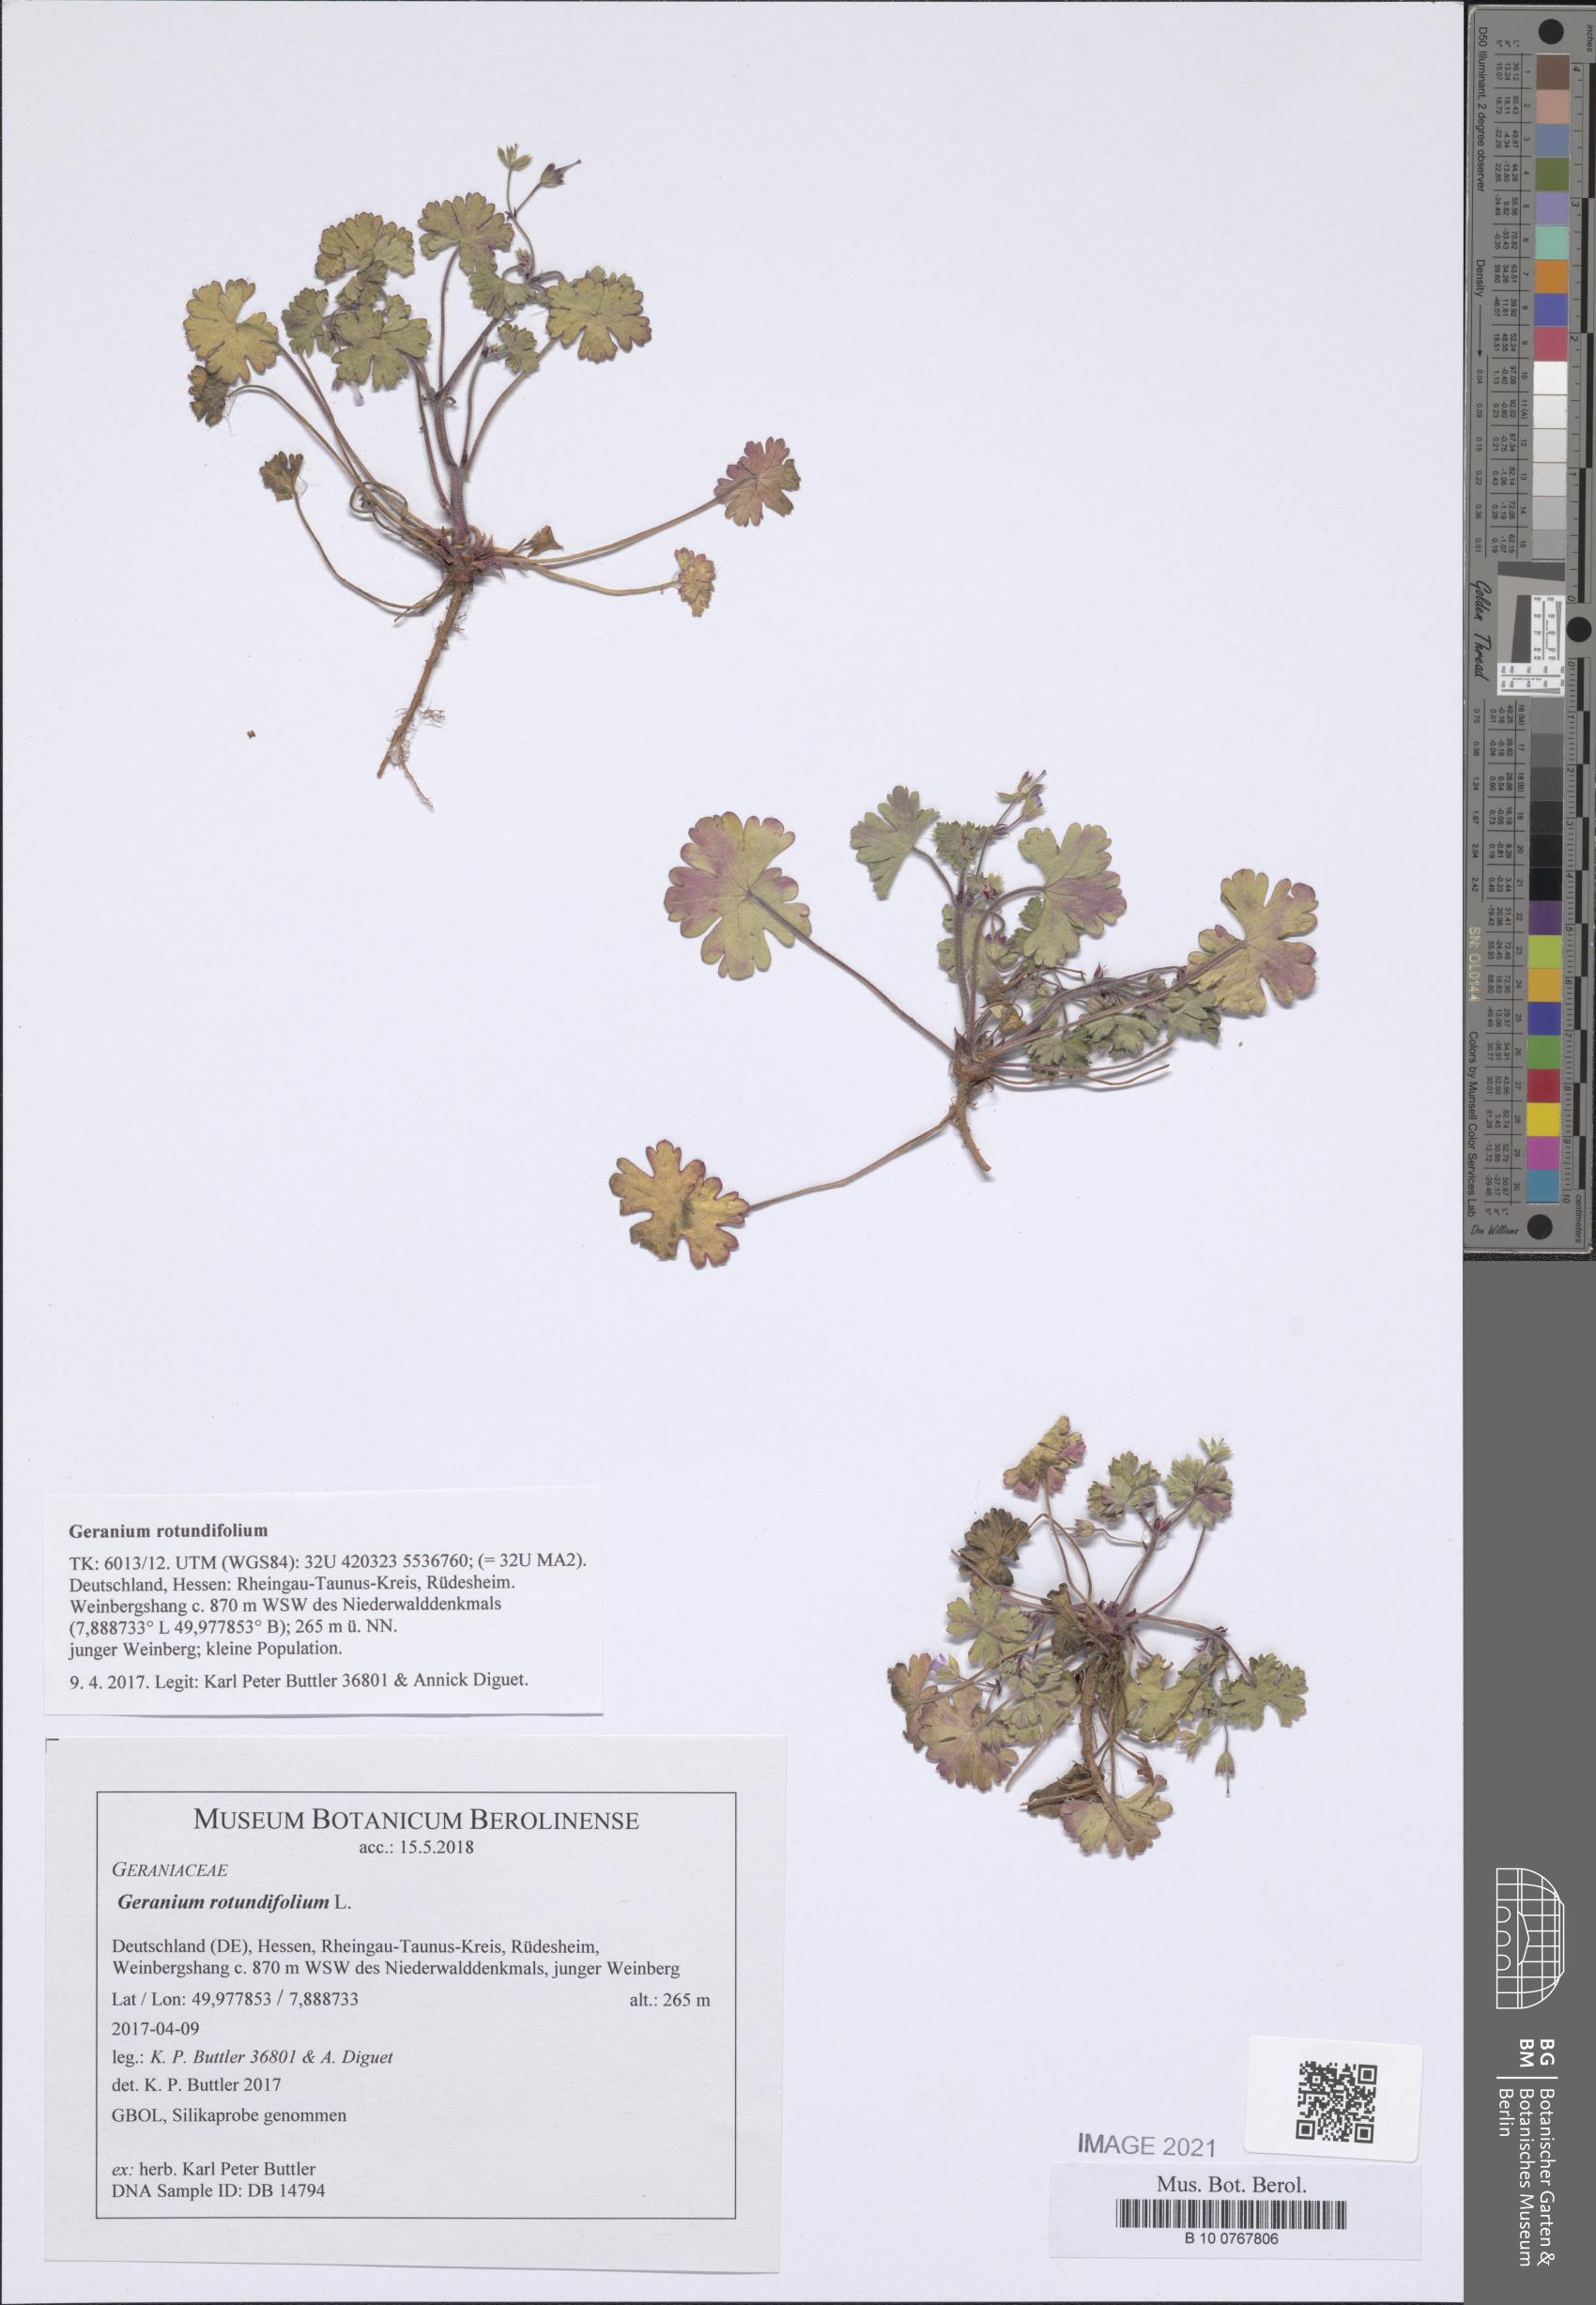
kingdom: Plantae
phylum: Tracheophyta
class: Magnoliopsida
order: Geraniales
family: Geraniaceae
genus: Geranium
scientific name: Geranium rotundifolium
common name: Round-leaved crane's-bill
